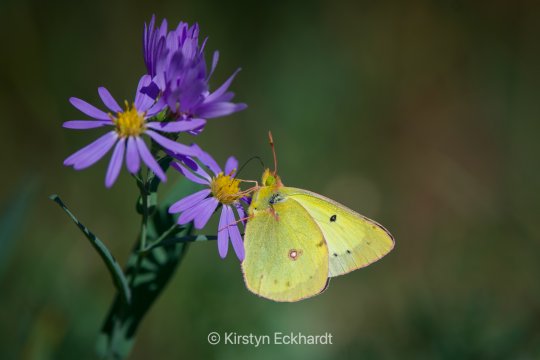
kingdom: Animalia
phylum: Arthropoda
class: Insecta
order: Lepidoptera
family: Pieridae
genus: Colias
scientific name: Colias philodice
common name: Clouded Sulphur
